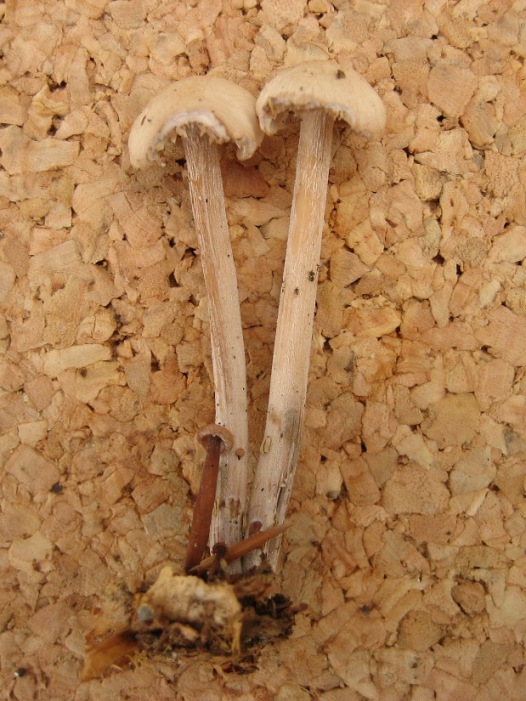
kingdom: Fungi
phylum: Basidiomycota
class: Agaricomycetes
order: Agaricales
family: Omphalotaceae
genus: Collybiopsis
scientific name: Collybiopsis confluens
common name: knippe-fladhat
